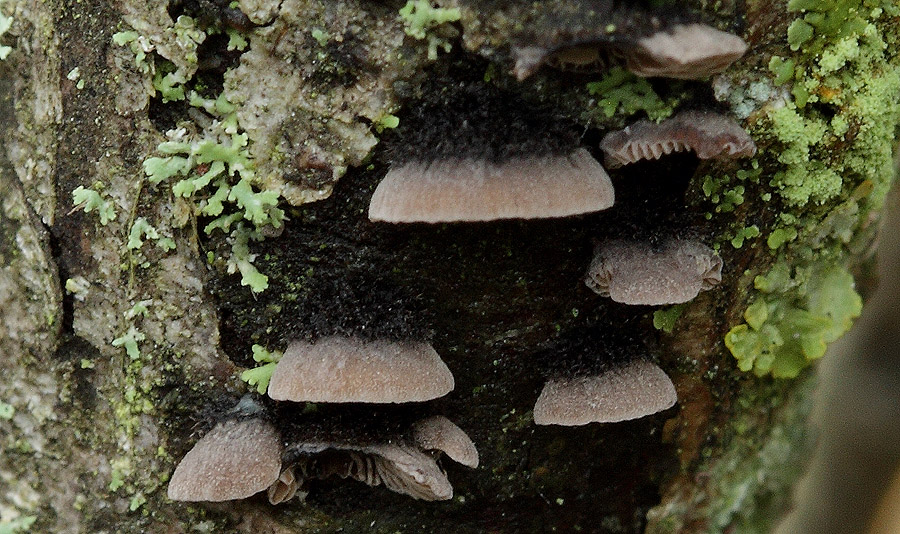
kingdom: Fungi
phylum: Basidiomycota
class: Agaricomycetes
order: Agaricales
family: Pleurotaceae
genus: Resupinatus
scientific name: Resupinatus trichotis
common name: mørkfiltet barkhat
